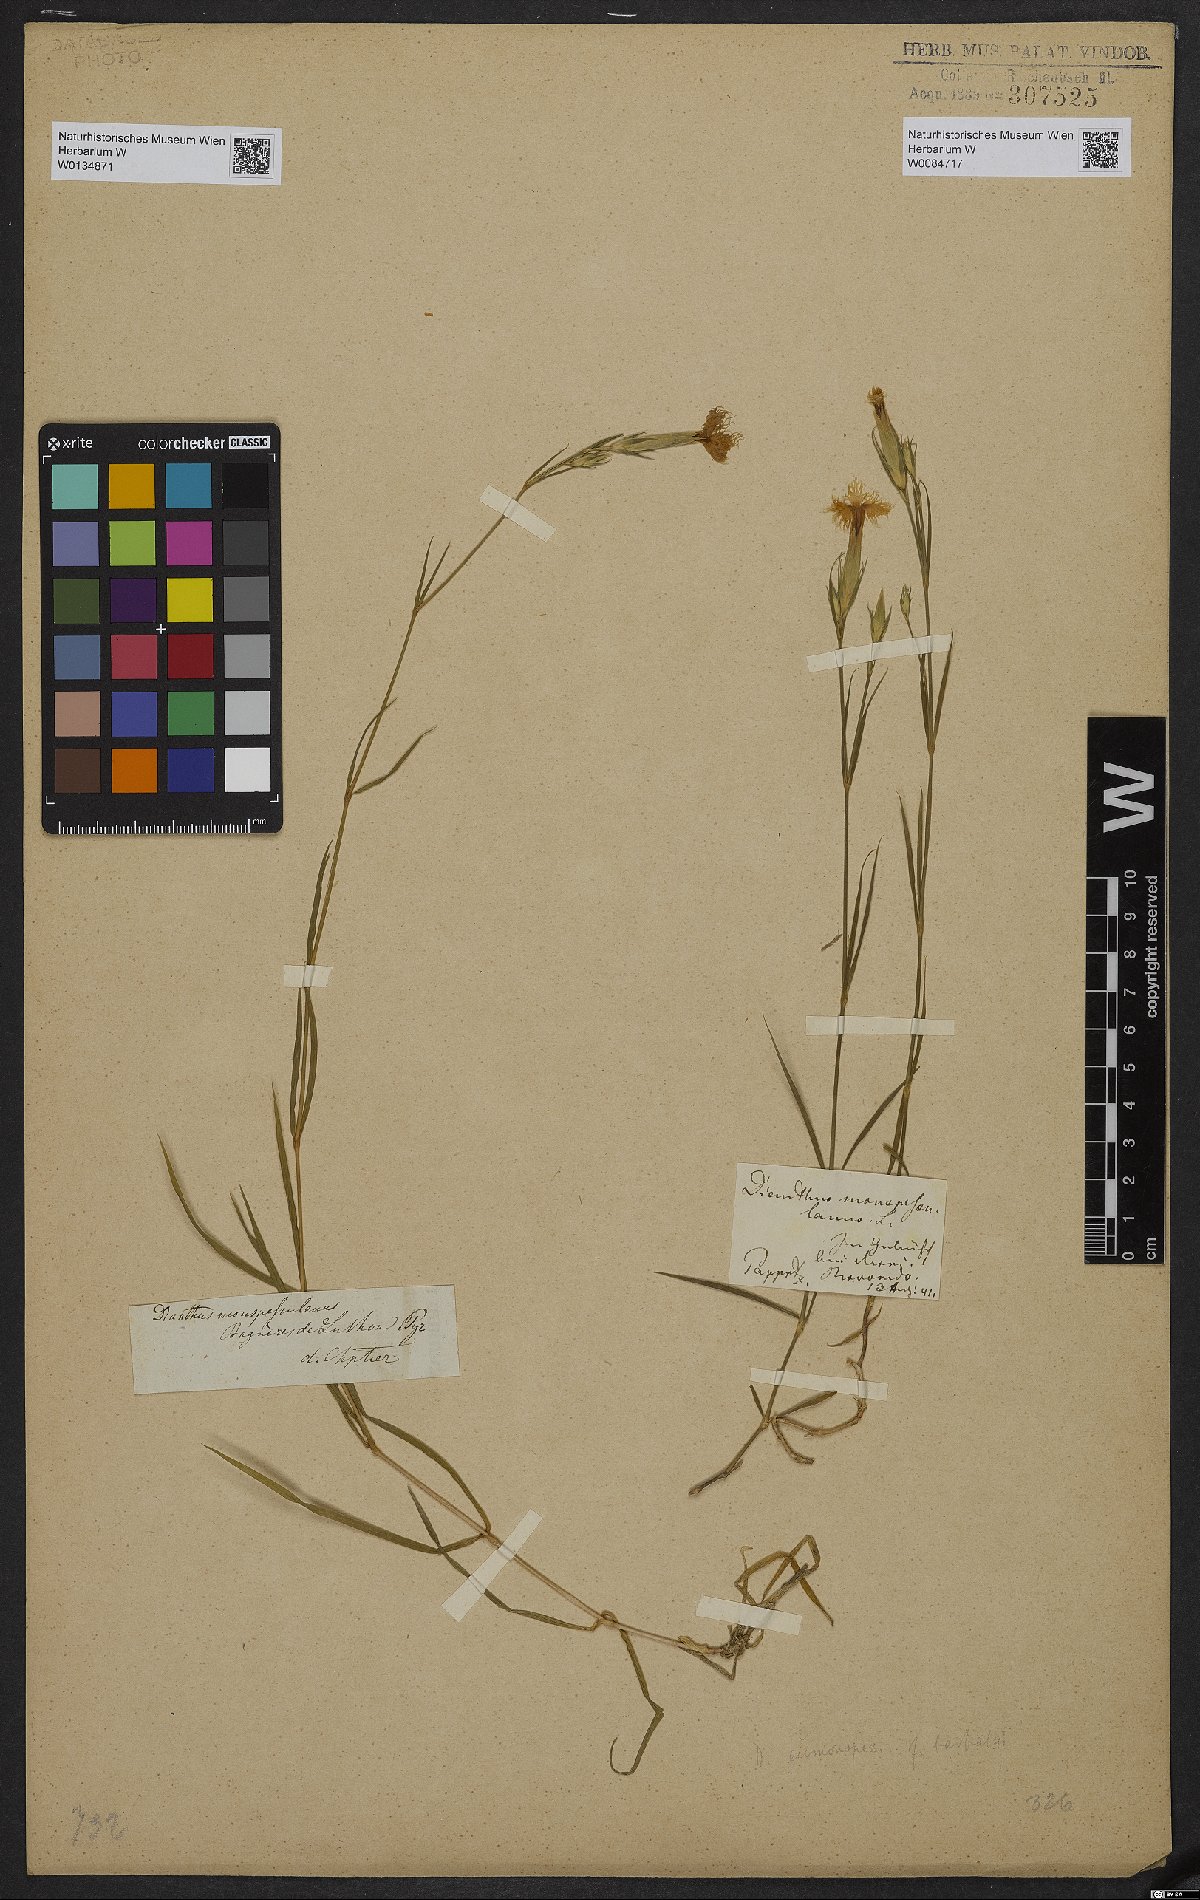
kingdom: Plantae
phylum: Tracheophyta
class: Magnoliopsida
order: Caryophyllales
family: Caryophyllaceae
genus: Dianthus
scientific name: Dianthus hyssopifolius
